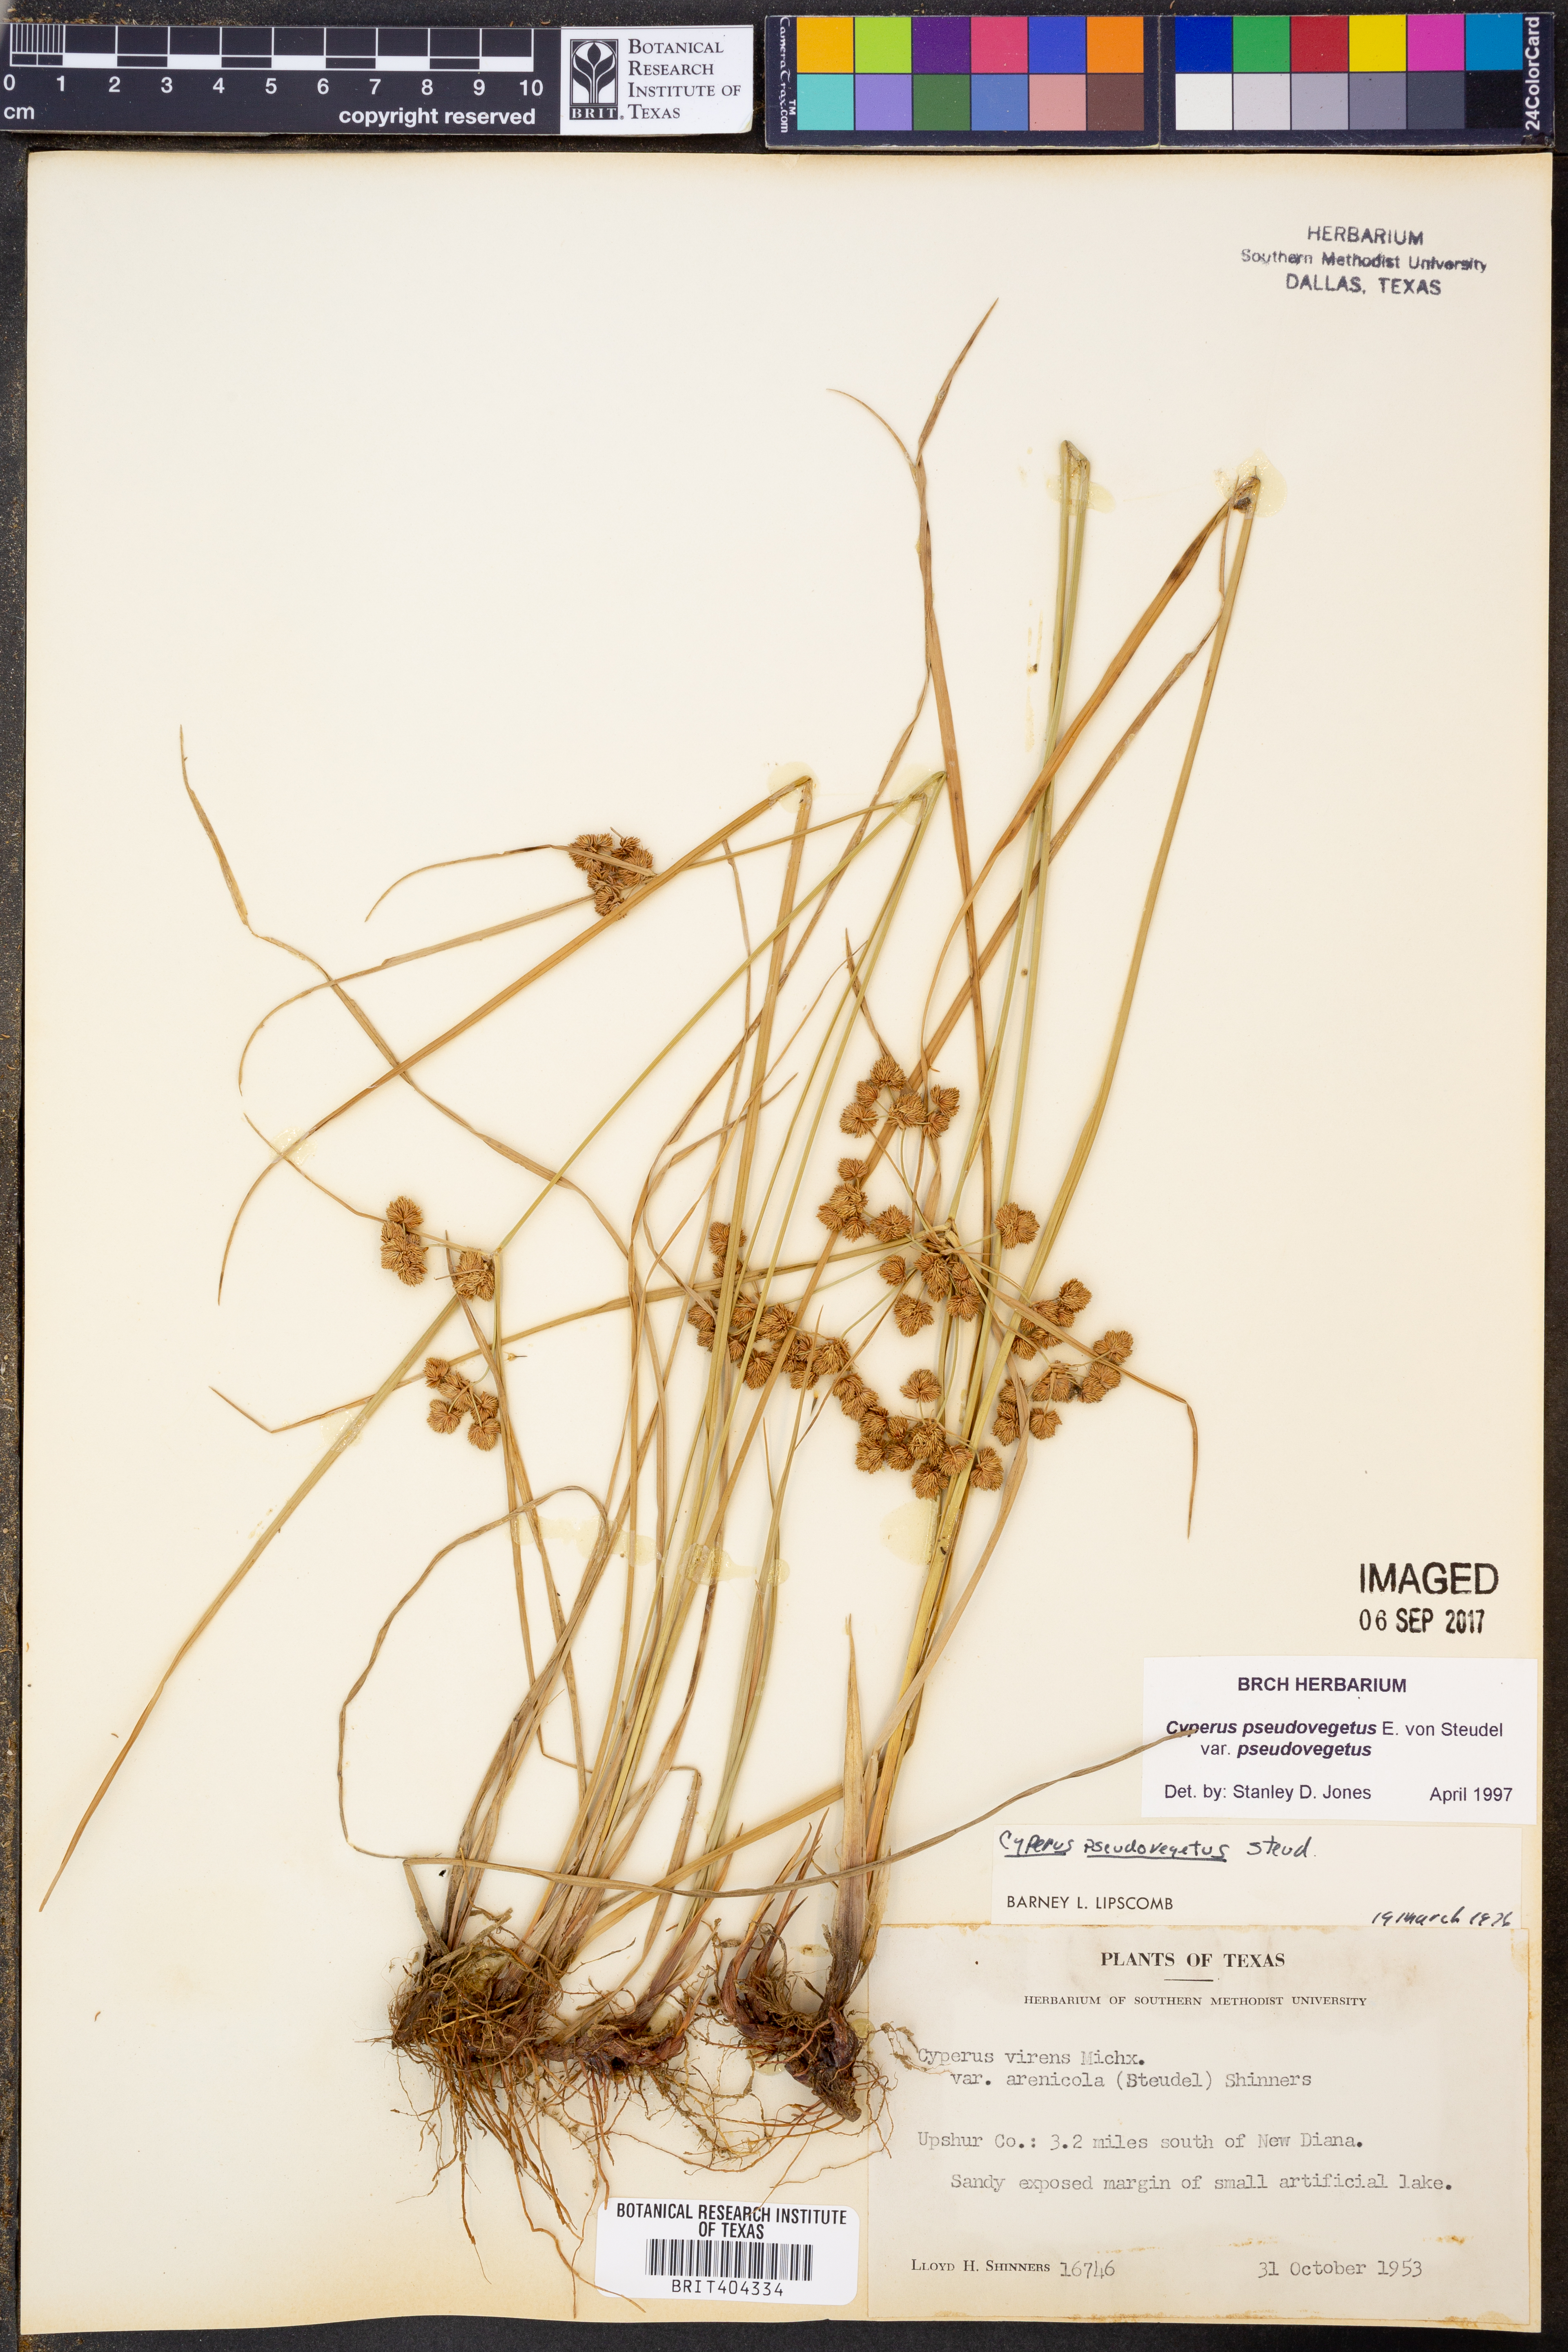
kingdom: Plantae
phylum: Tracheophyta
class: Liliopsida
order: Poales
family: Cyperaceae
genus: Cyperus
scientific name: Cyperus pseudovegetus
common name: Marsh flat sedge
